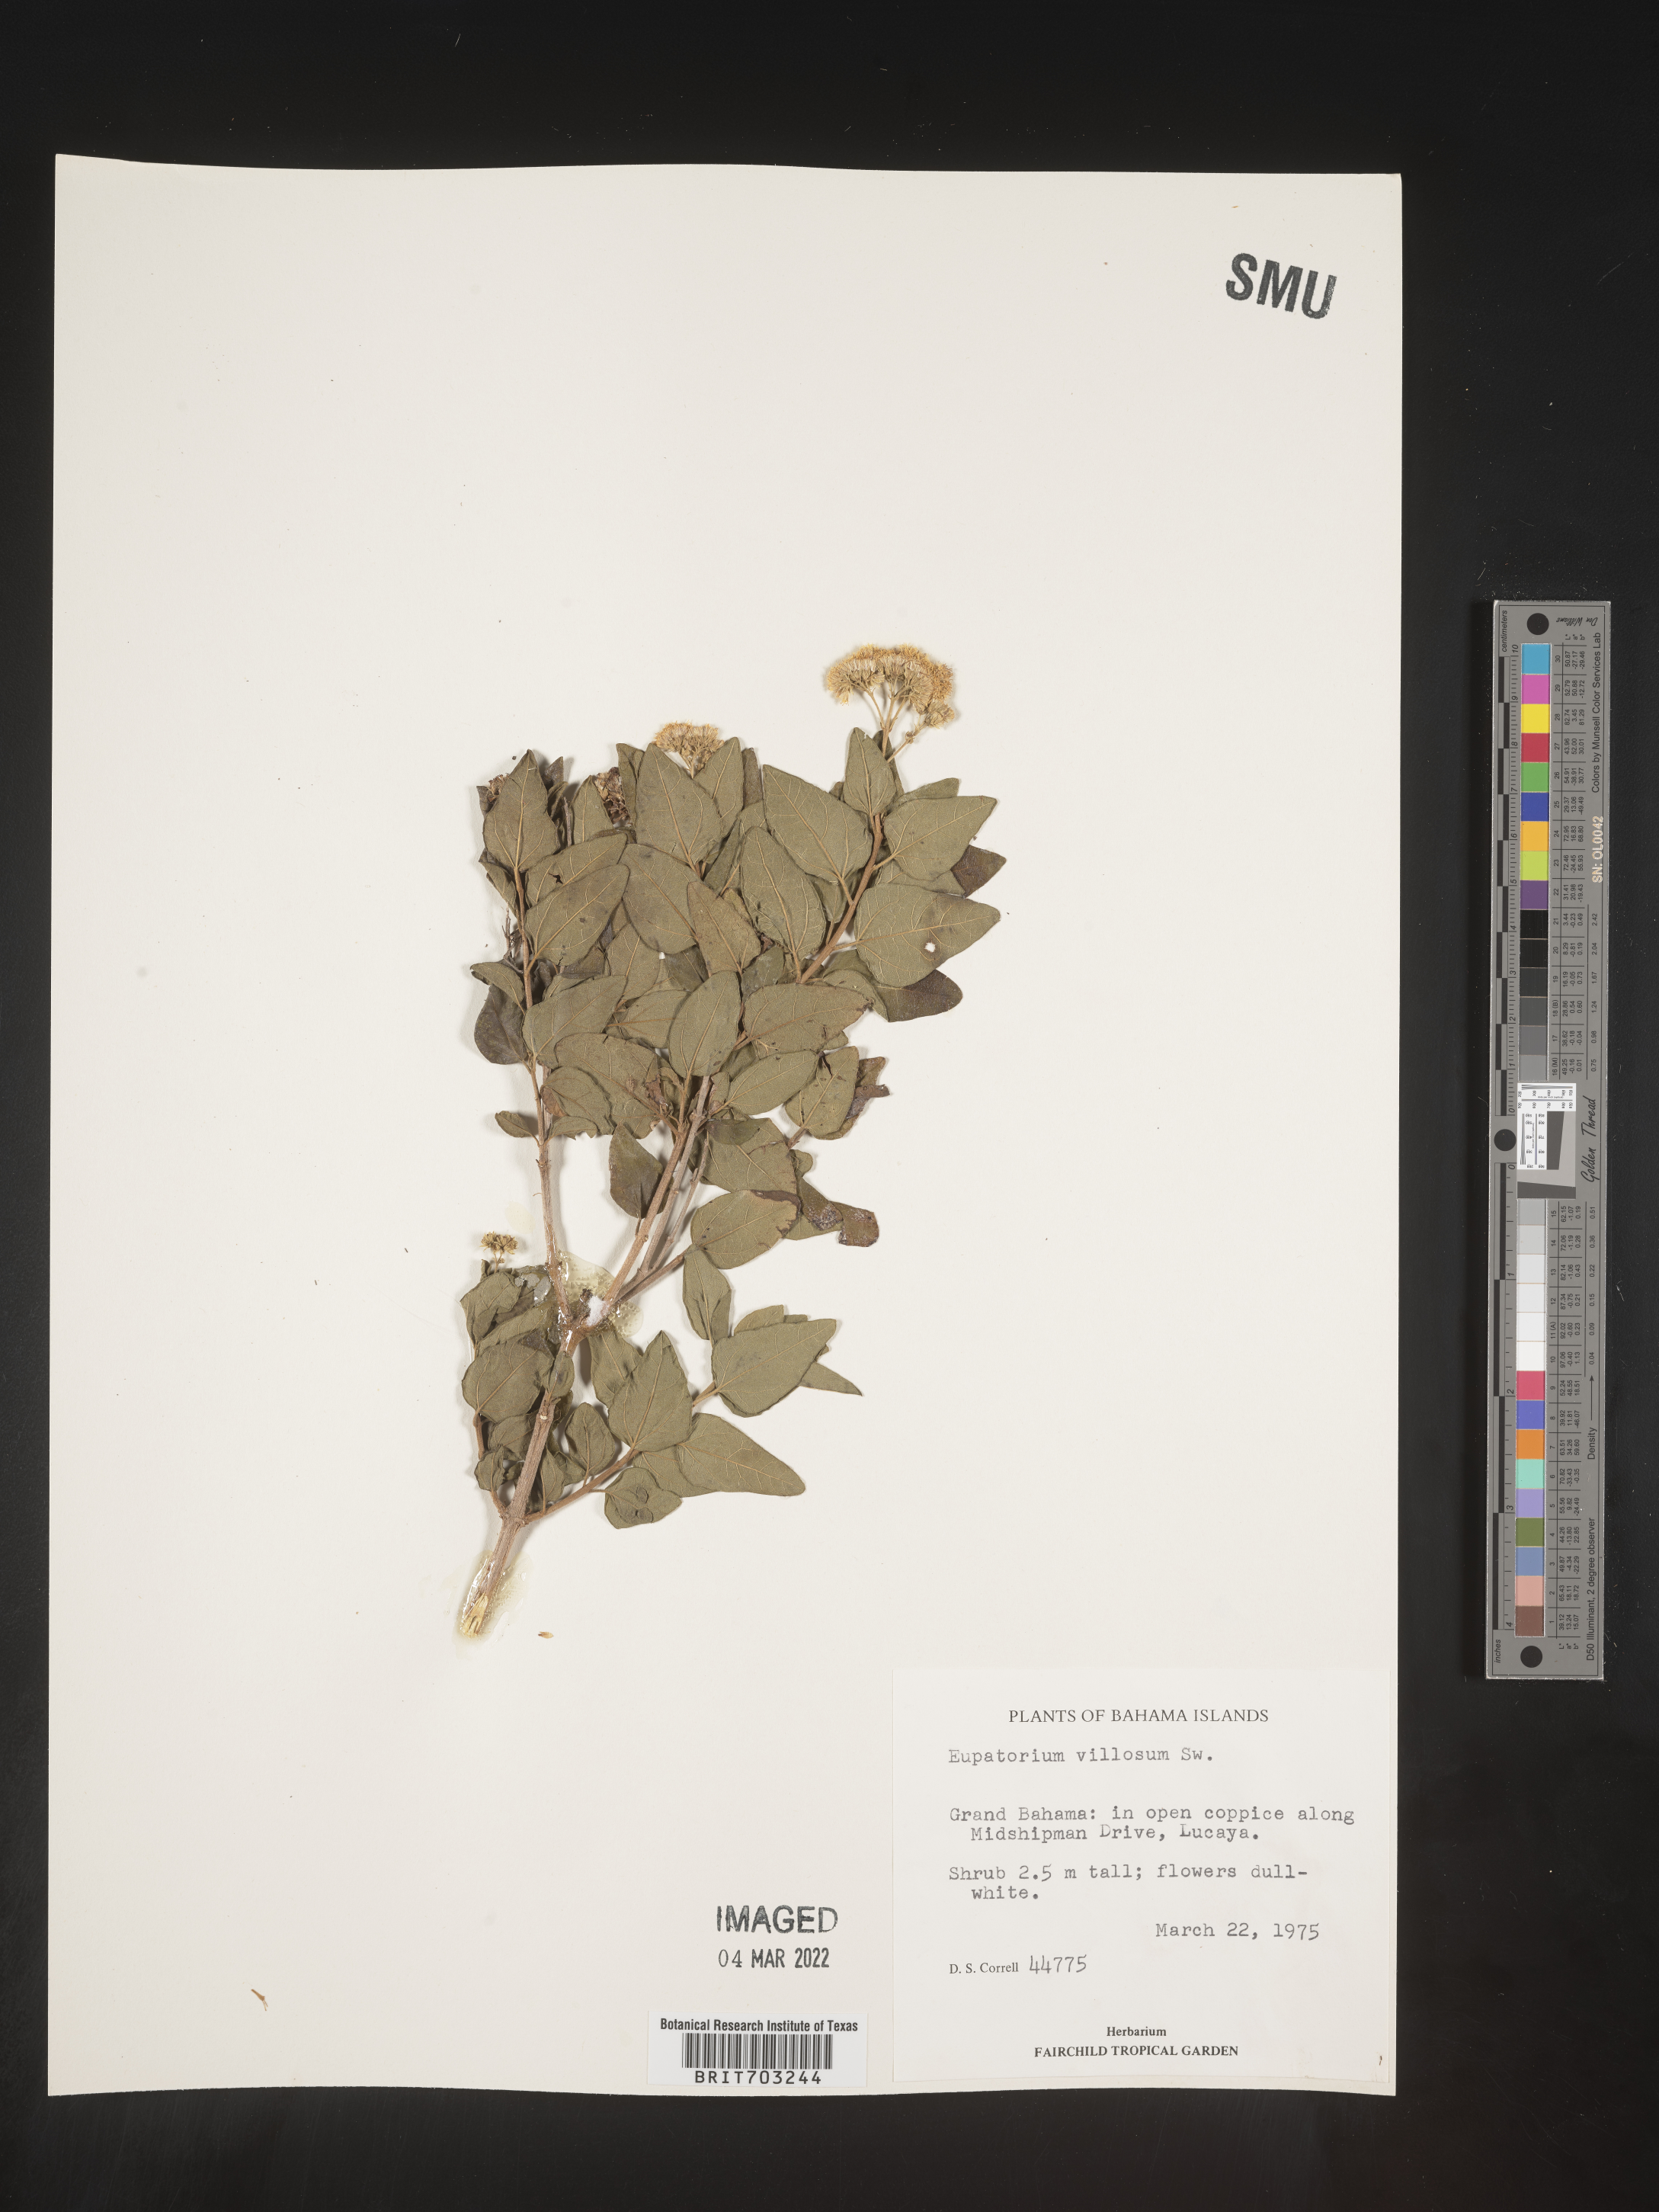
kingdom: Plantae
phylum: Tracheophyta
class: Magnoliopsida
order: Asterales
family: Asteraceae
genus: Eupatorium
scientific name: Eupatorium
